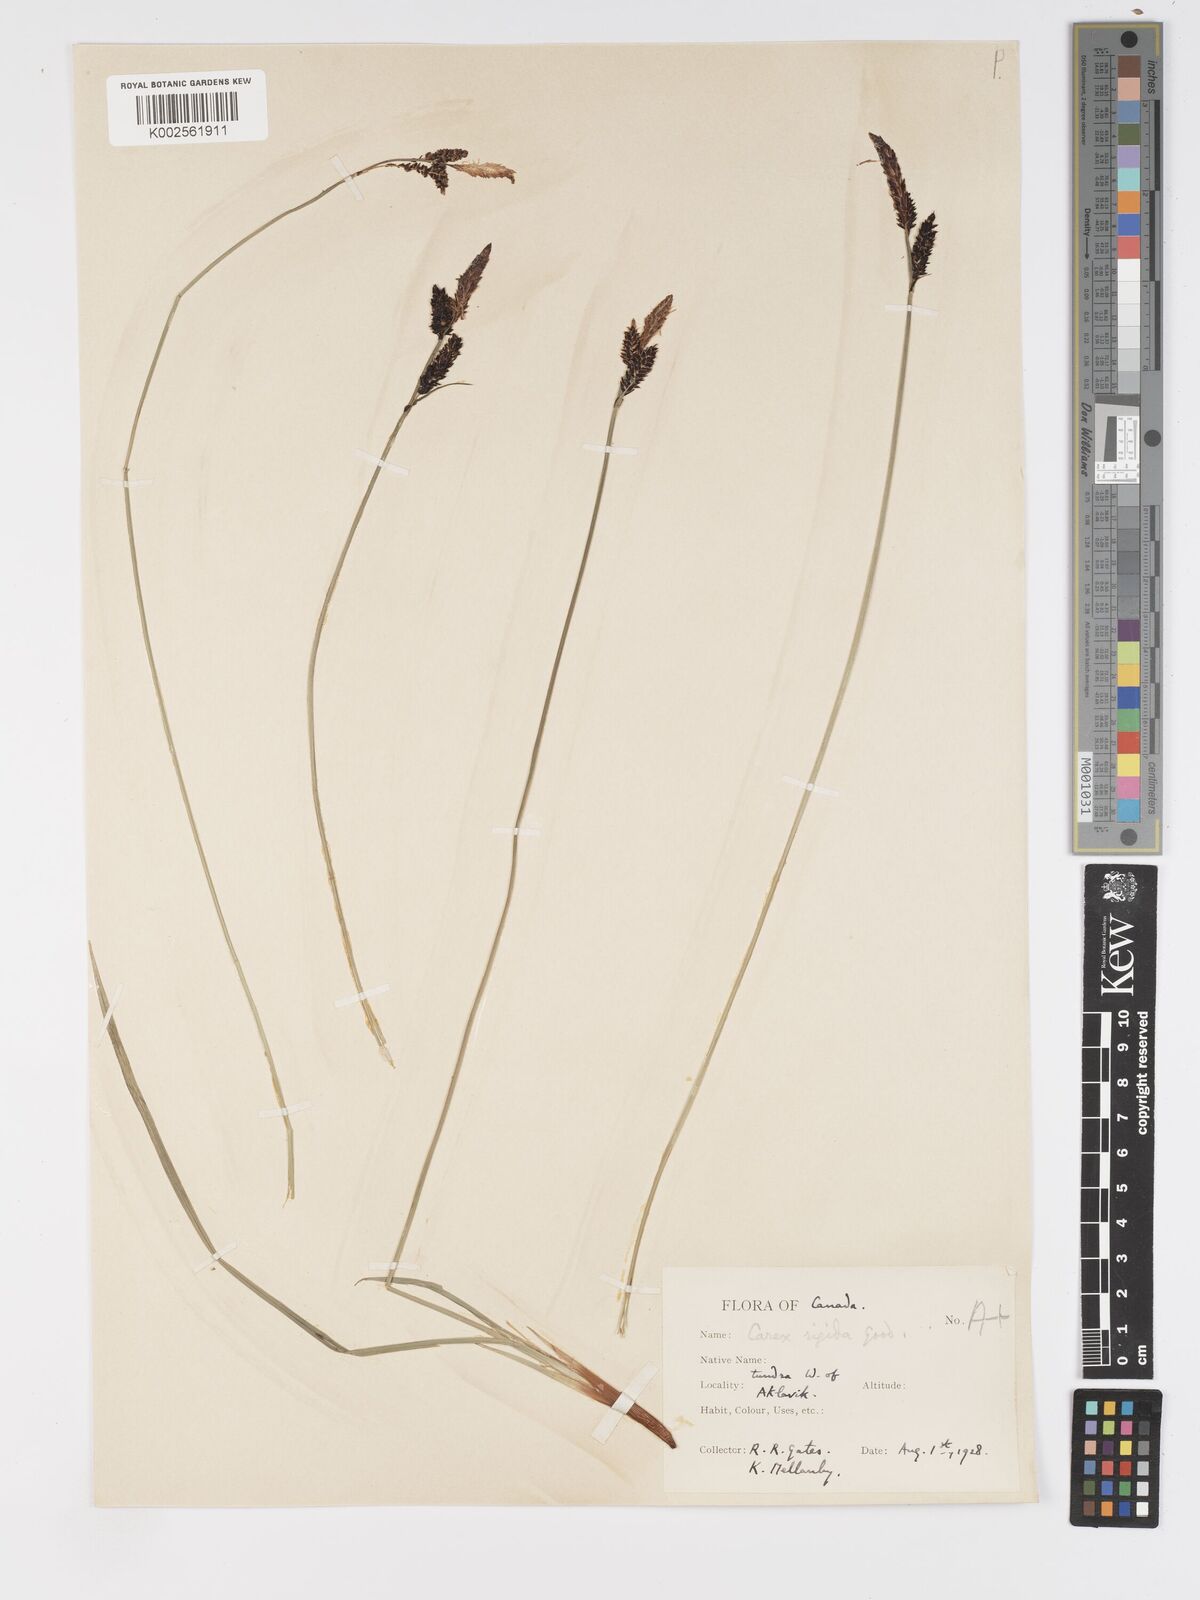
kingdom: Plantae
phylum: Tracheophyta
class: Liliopsida
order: Poales
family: Cyperaceae
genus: Carex
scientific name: Carex bigelowii
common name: Stiff sedge
